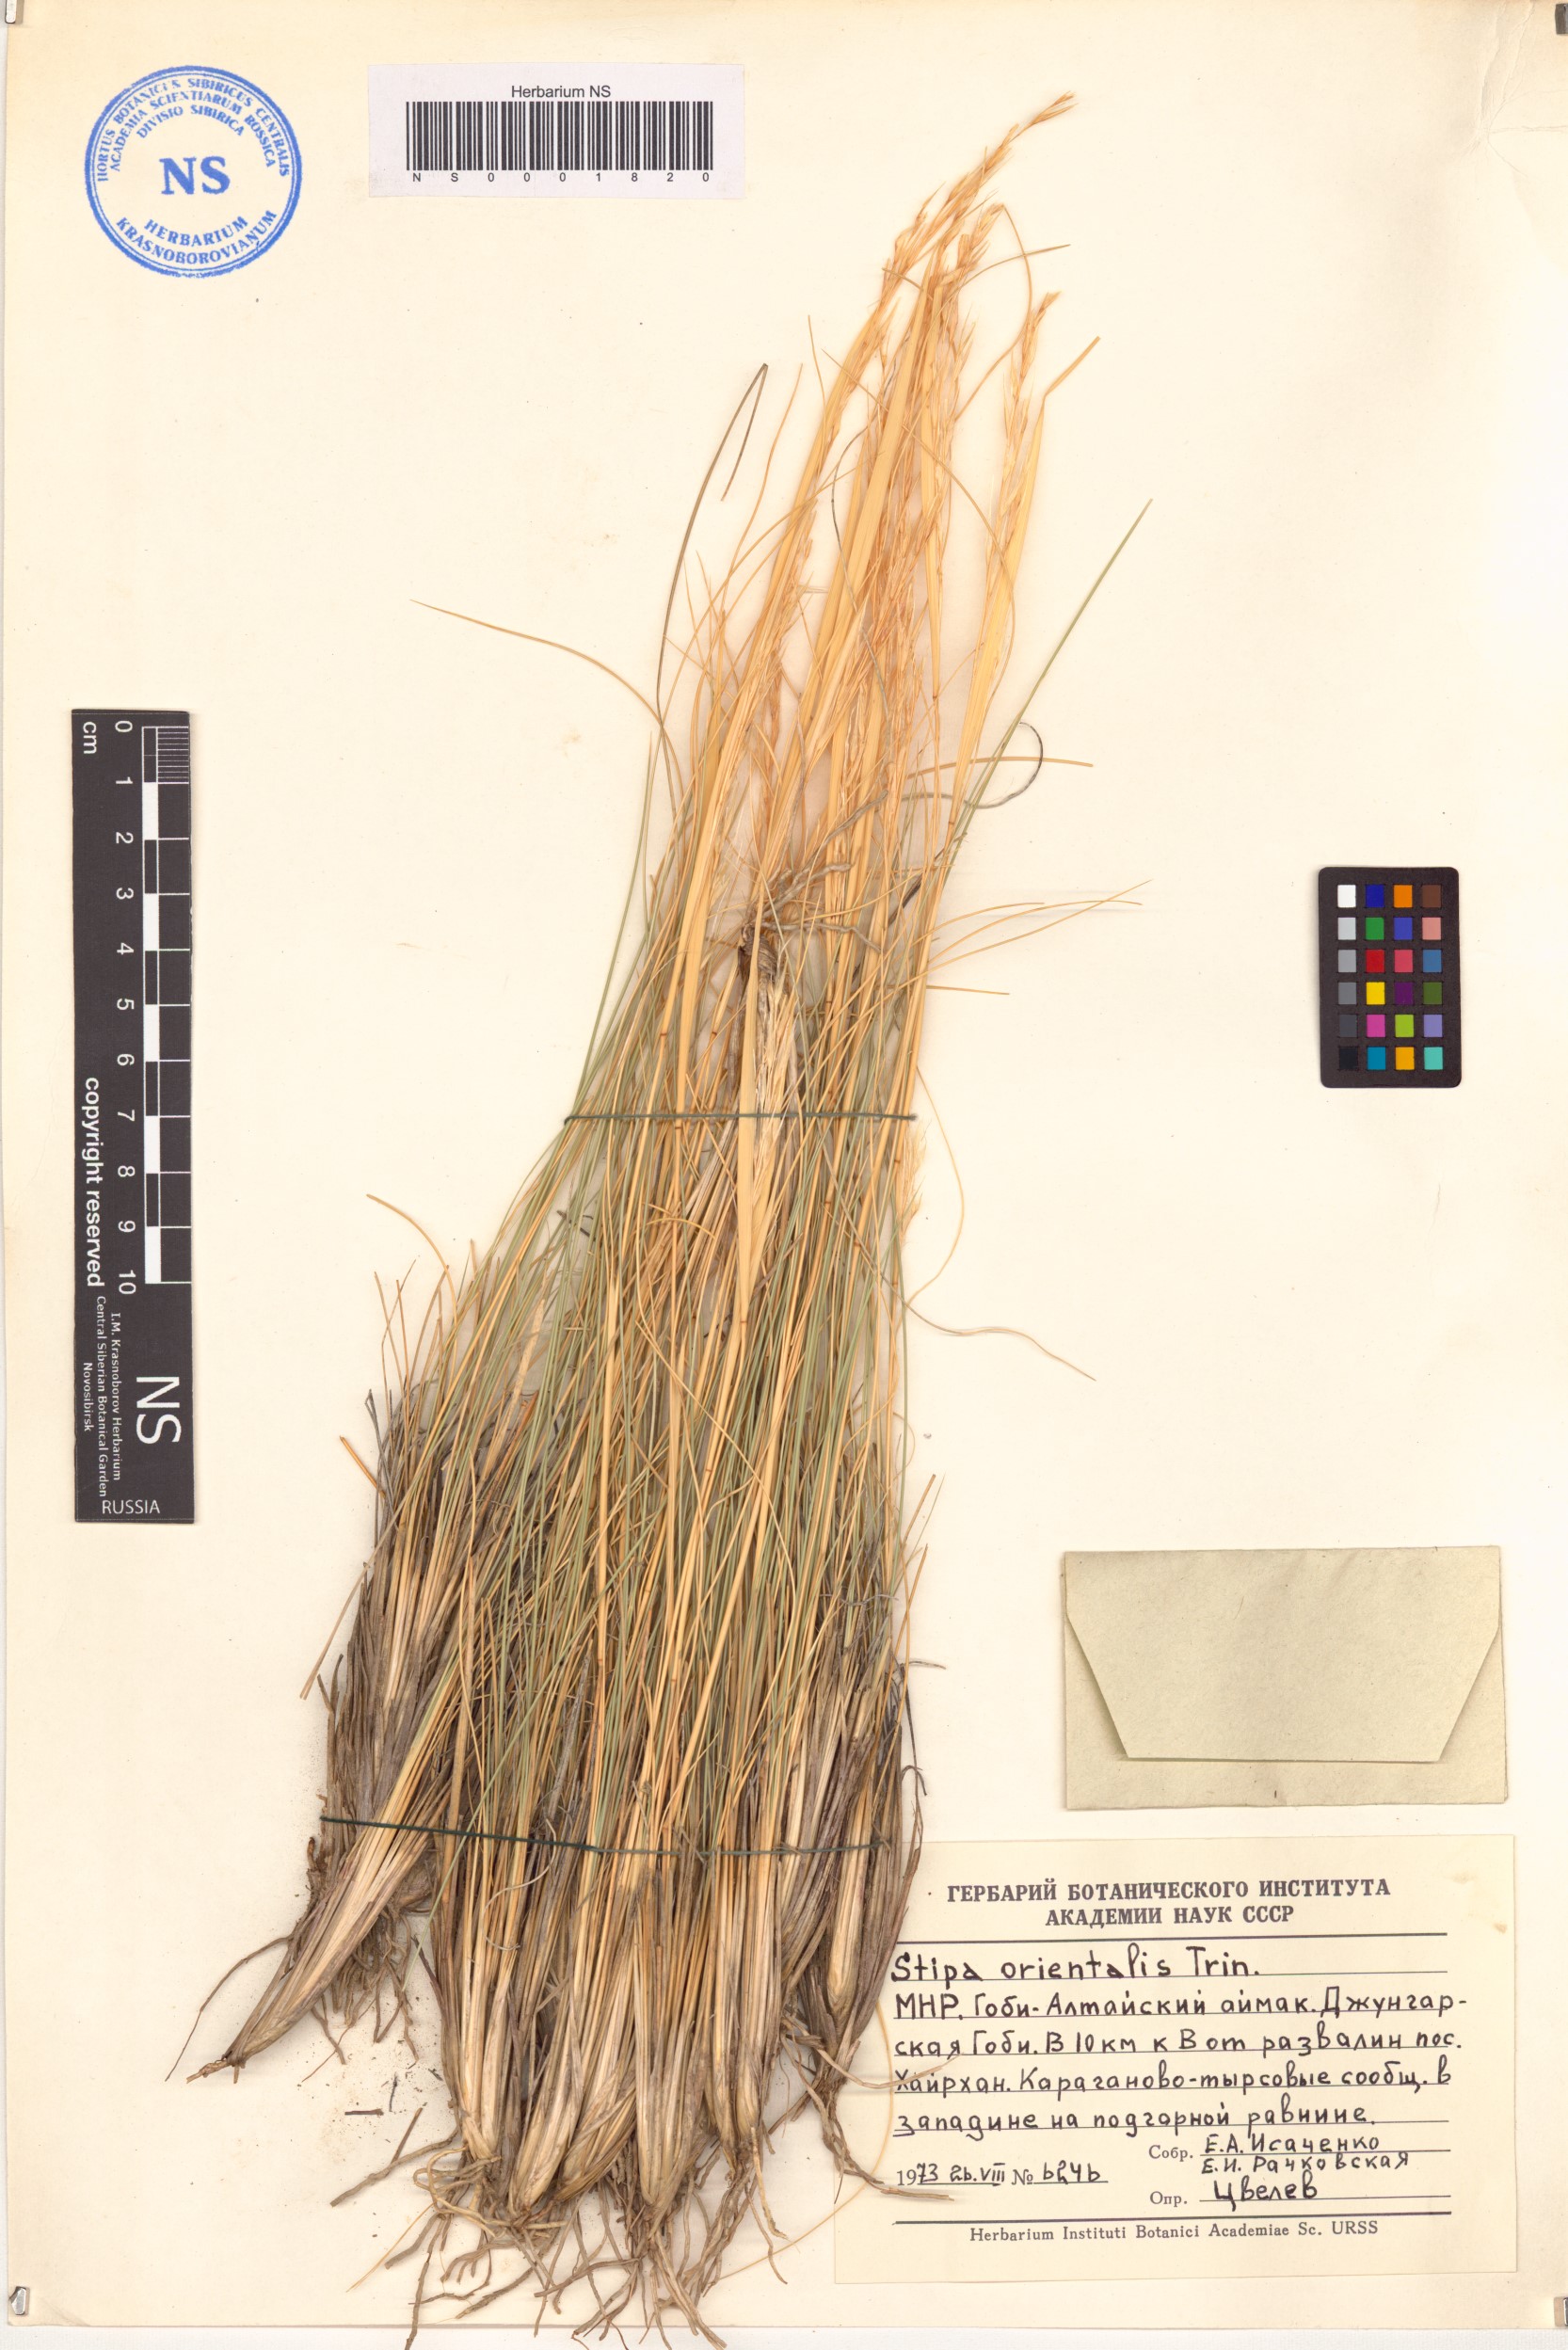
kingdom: Plantae
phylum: Tracheophyta
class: Liliopsida
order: Poales
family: Poaceae
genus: Stipa
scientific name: Stipa orientalis
